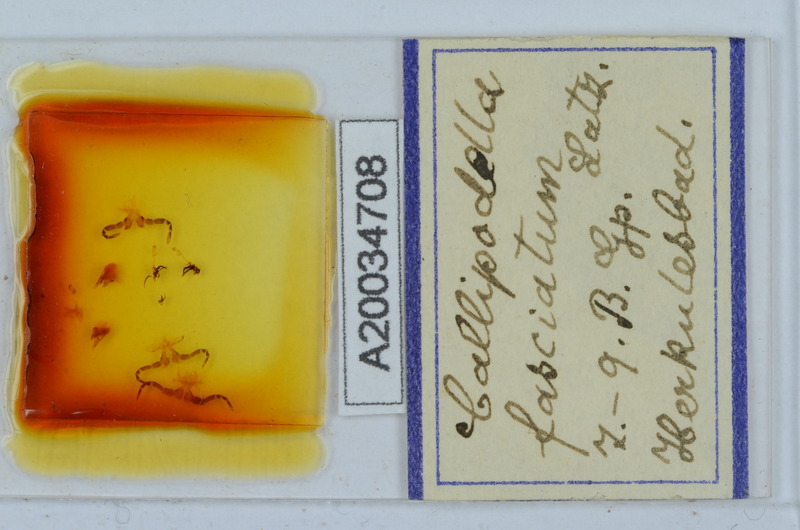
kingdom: Animalia
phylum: Arthropoda
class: Diplopoda
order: Callipodida
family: Schizopetalidae
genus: Callipodella
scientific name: Callipodella fasciata
